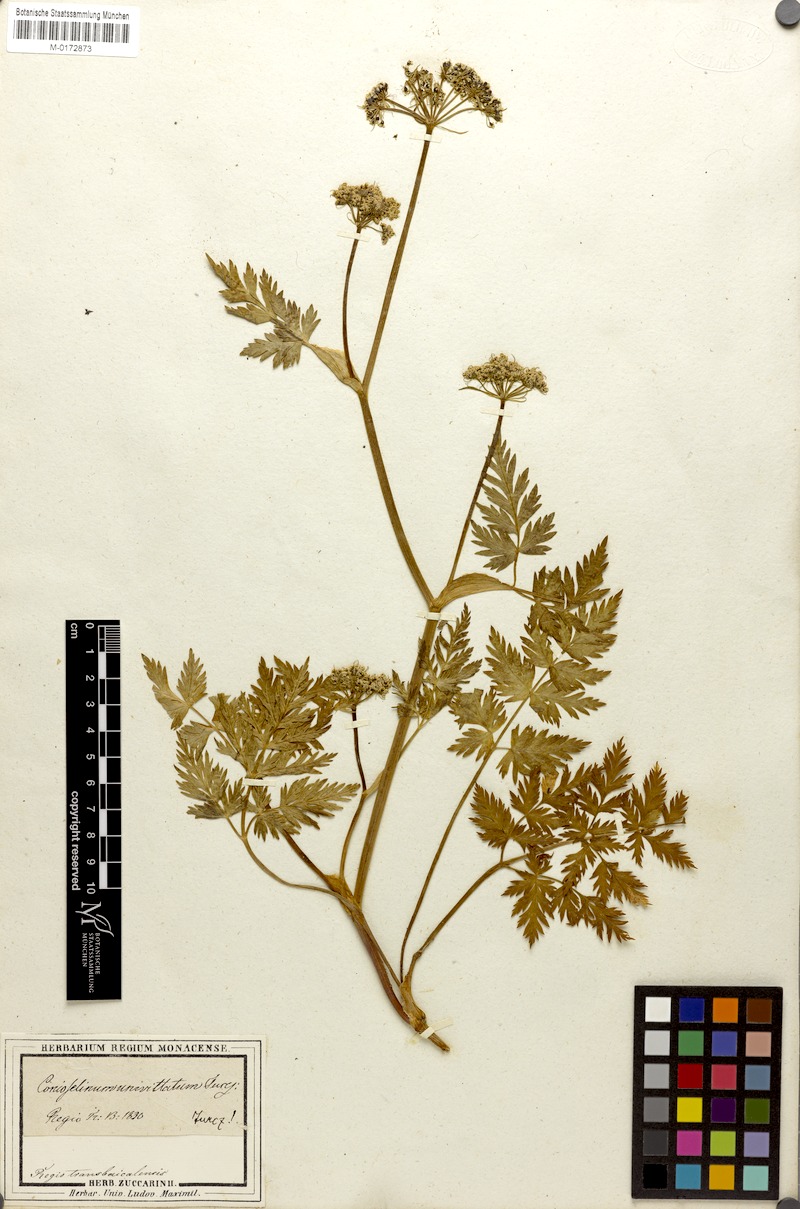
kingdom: Plantae
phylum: Tracheophyta
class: Magnoliopsida
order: Apiales
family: Apiaceae
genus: Seseli
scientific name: Seseli condensatum
